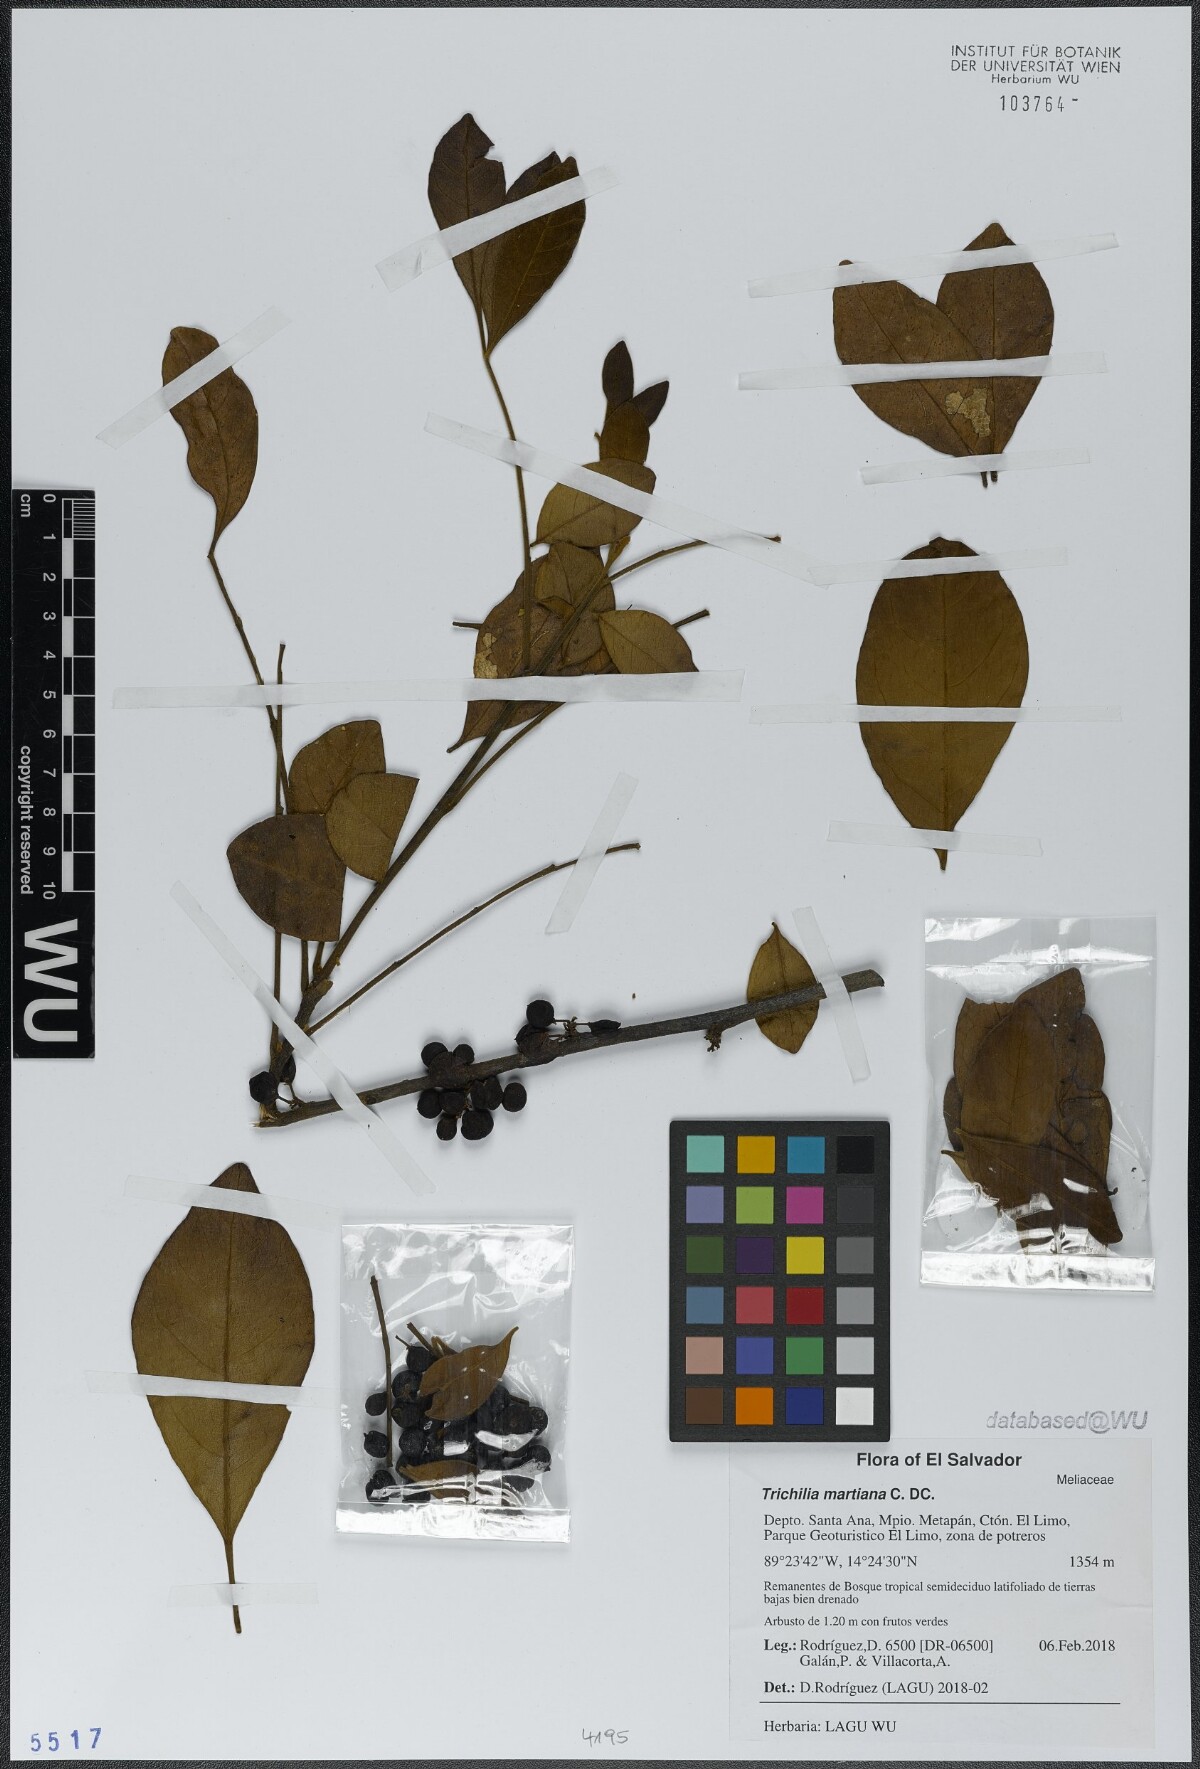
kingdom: Plantae
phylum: Tracheophyta
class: Magnoliopsida
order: Sapindales
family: Meliaceae
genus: Trichilia
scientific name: Trichilia martiana
